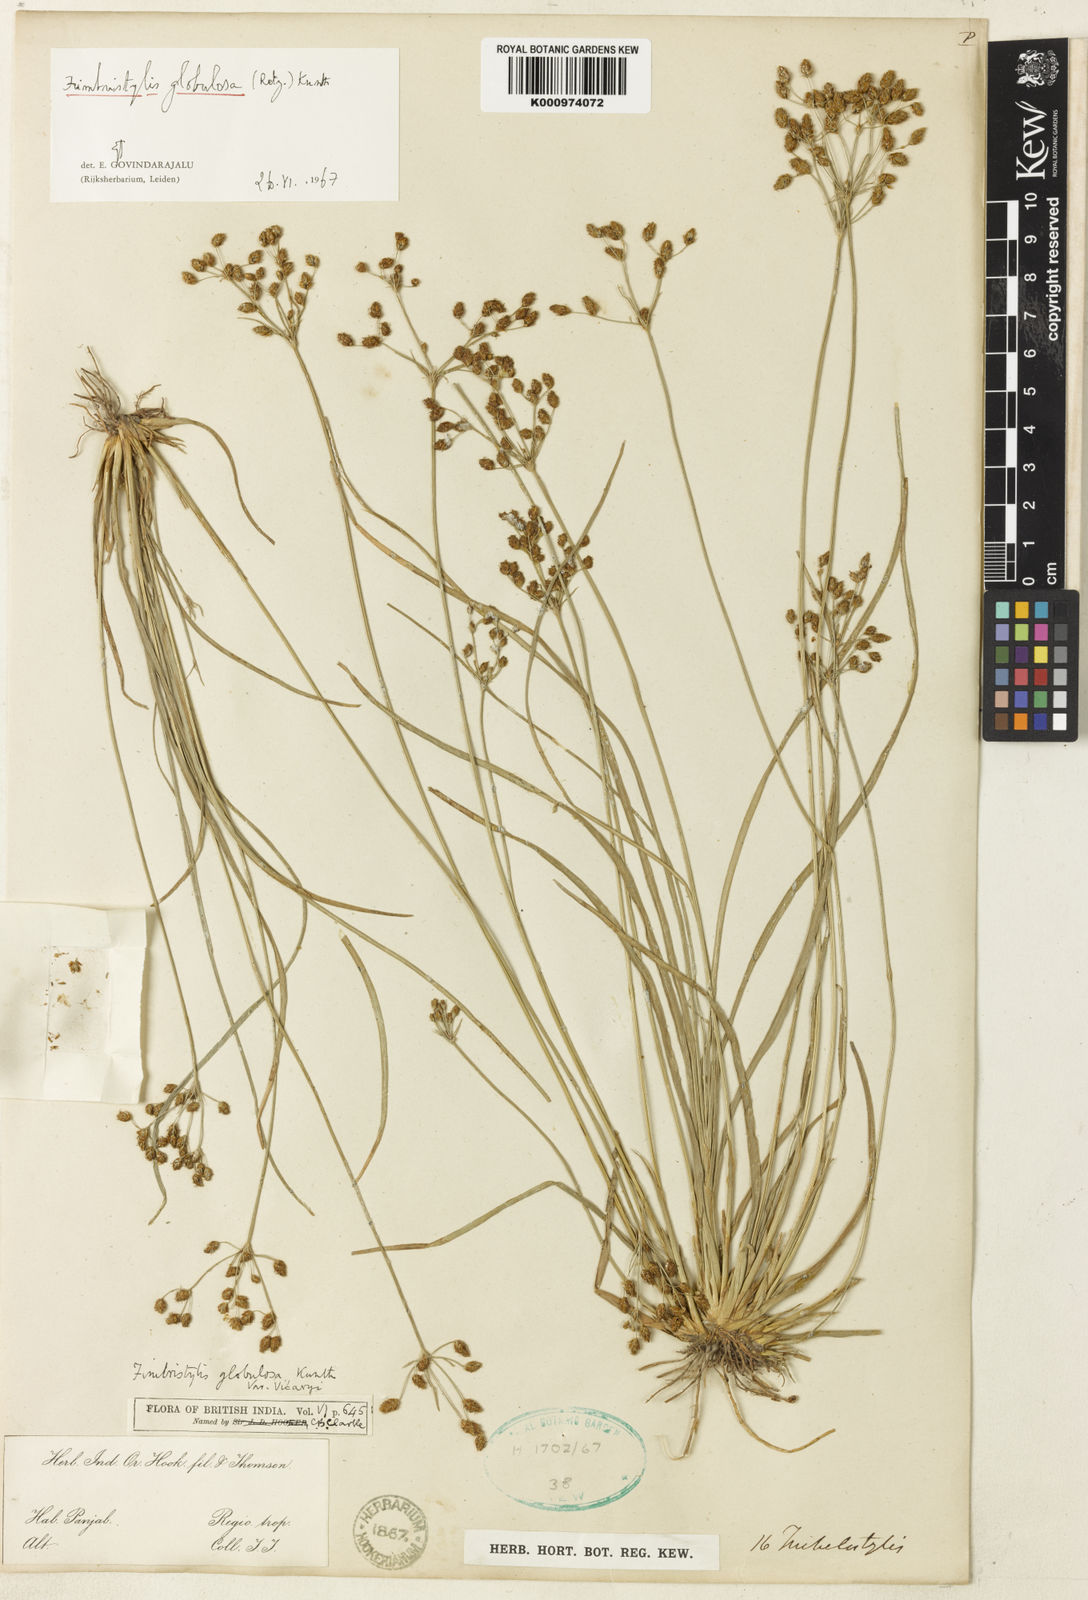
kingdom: Plantae
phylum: Tracheophyta
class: Liliopsida
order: Poales
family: Cyperaceae
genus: Fimbristylis
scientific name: Fimbristylis umbellaris
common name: Globular fimbristylis
